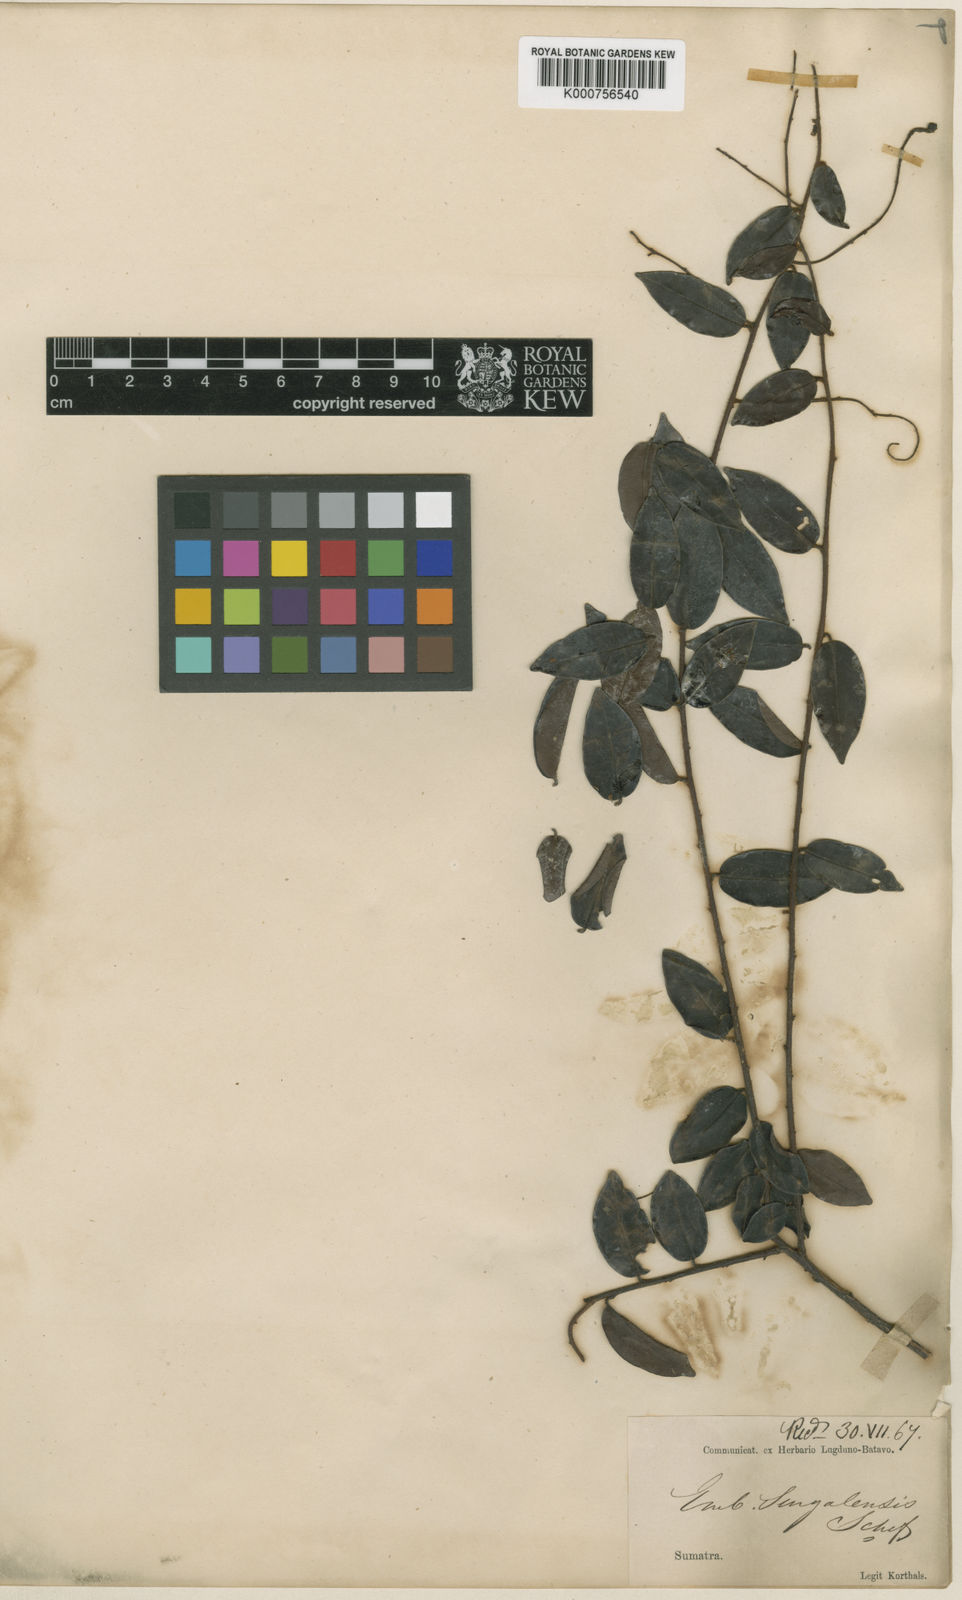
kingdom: Plantae
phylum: Tracheophyta
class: Magnoliopsida
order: Ericales
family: Primulaceae
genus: Embelia
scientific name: Embelia singalangensis
